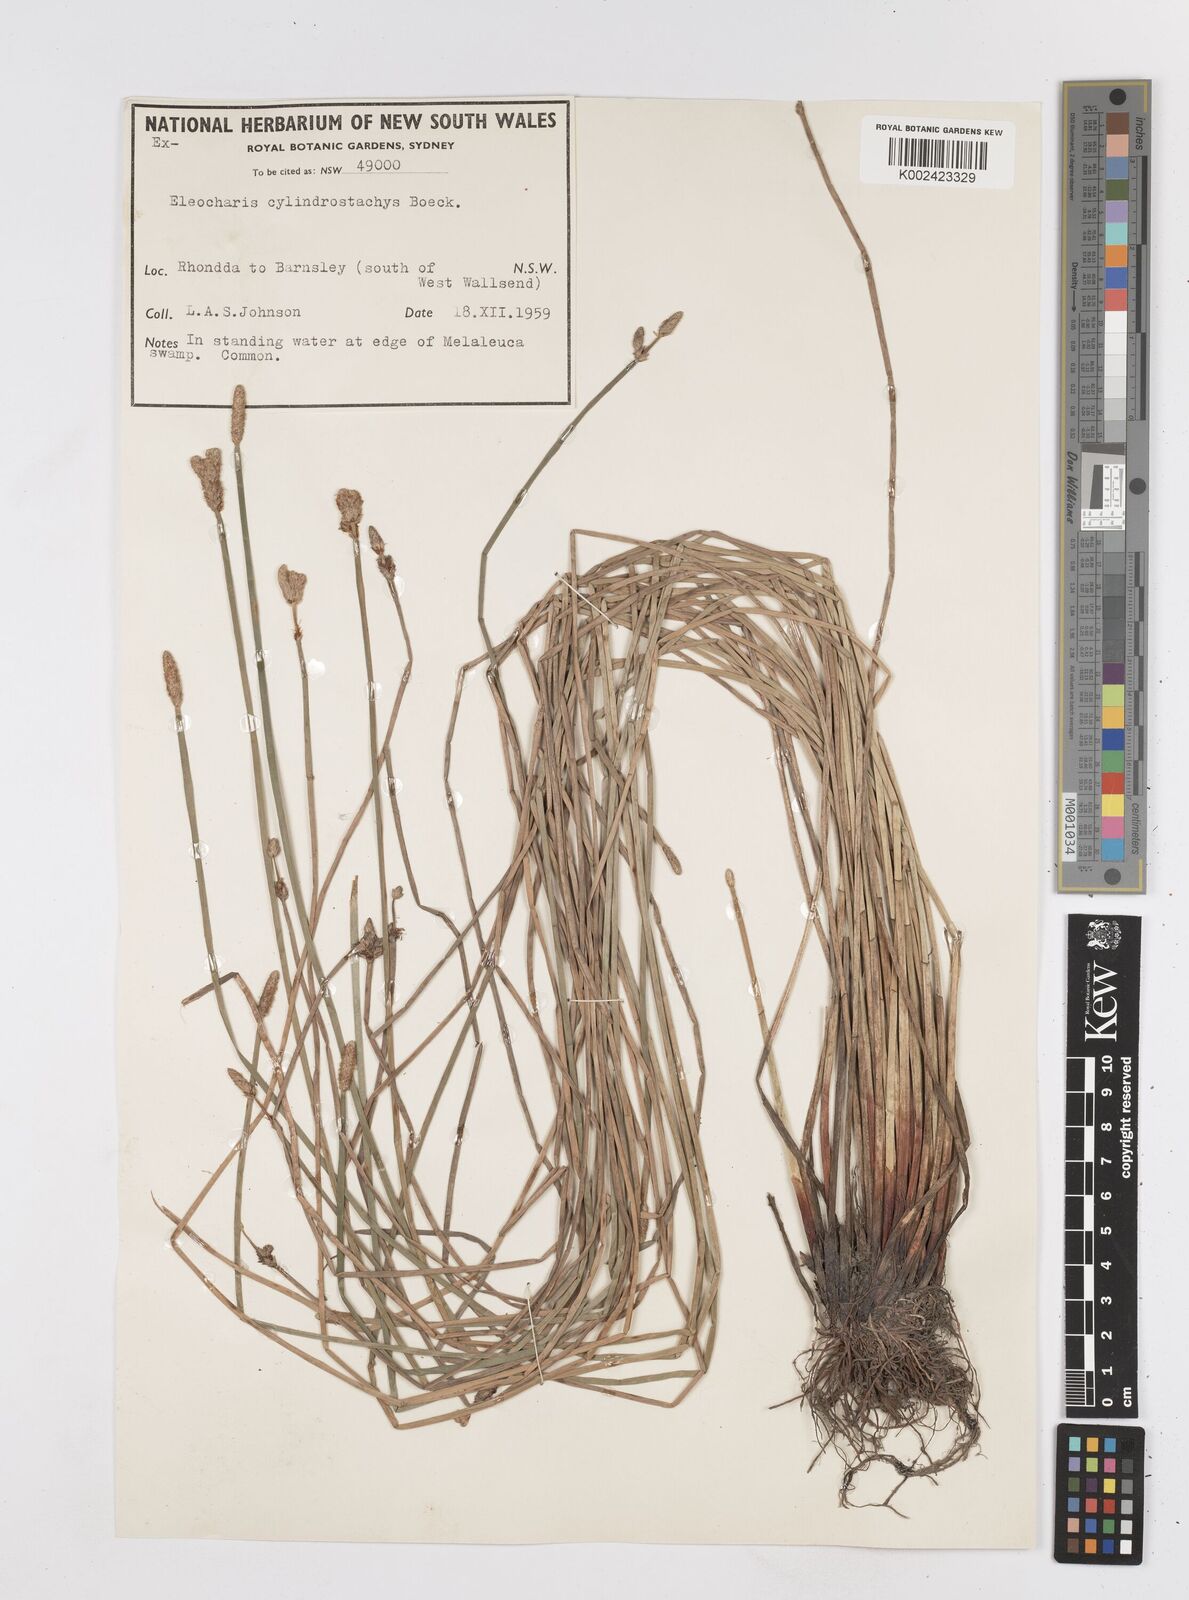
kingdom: Plantae
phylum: Tracheophyta
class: Liliopsida
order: Poales
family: Cyperaceae
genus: Eleocharis
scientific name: Eleocharis cylindrostachys
